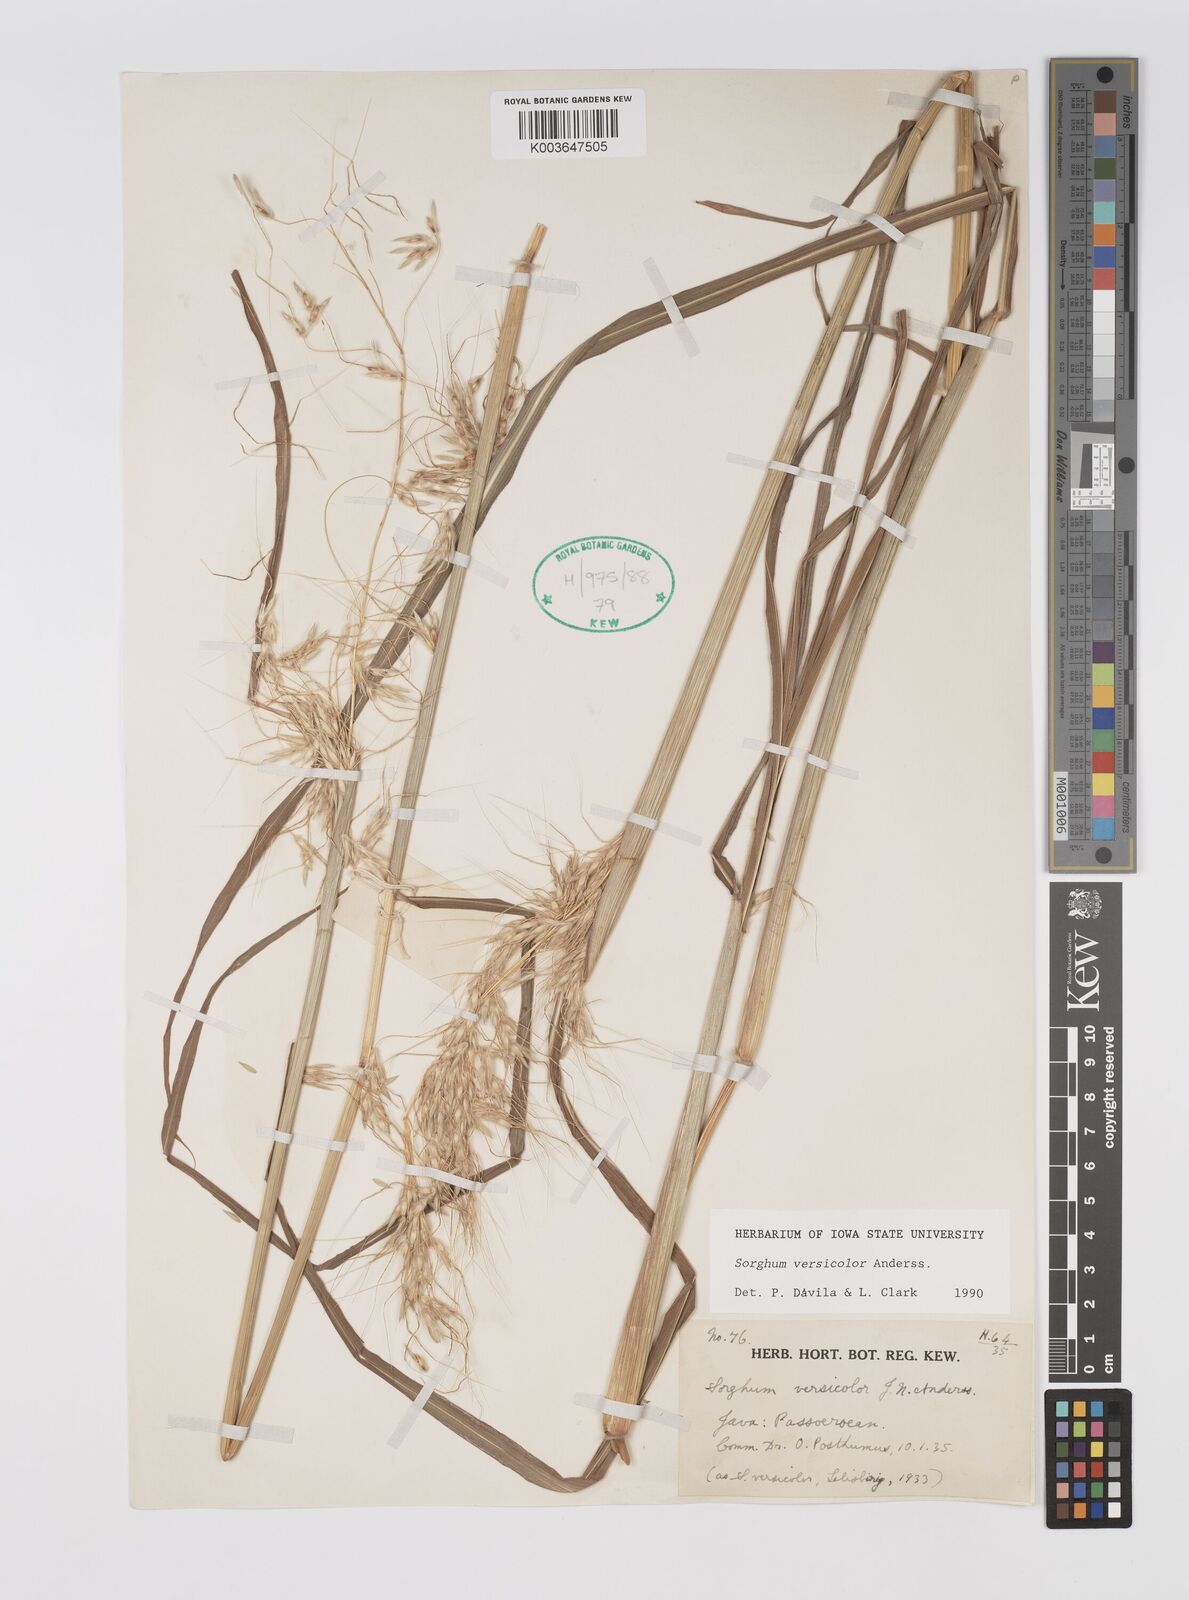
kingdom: Plantae
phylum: Tracheophyta
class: Liliopsida
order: Poales
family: Poaceae
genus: Sarga
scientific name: Sarga versicolor
